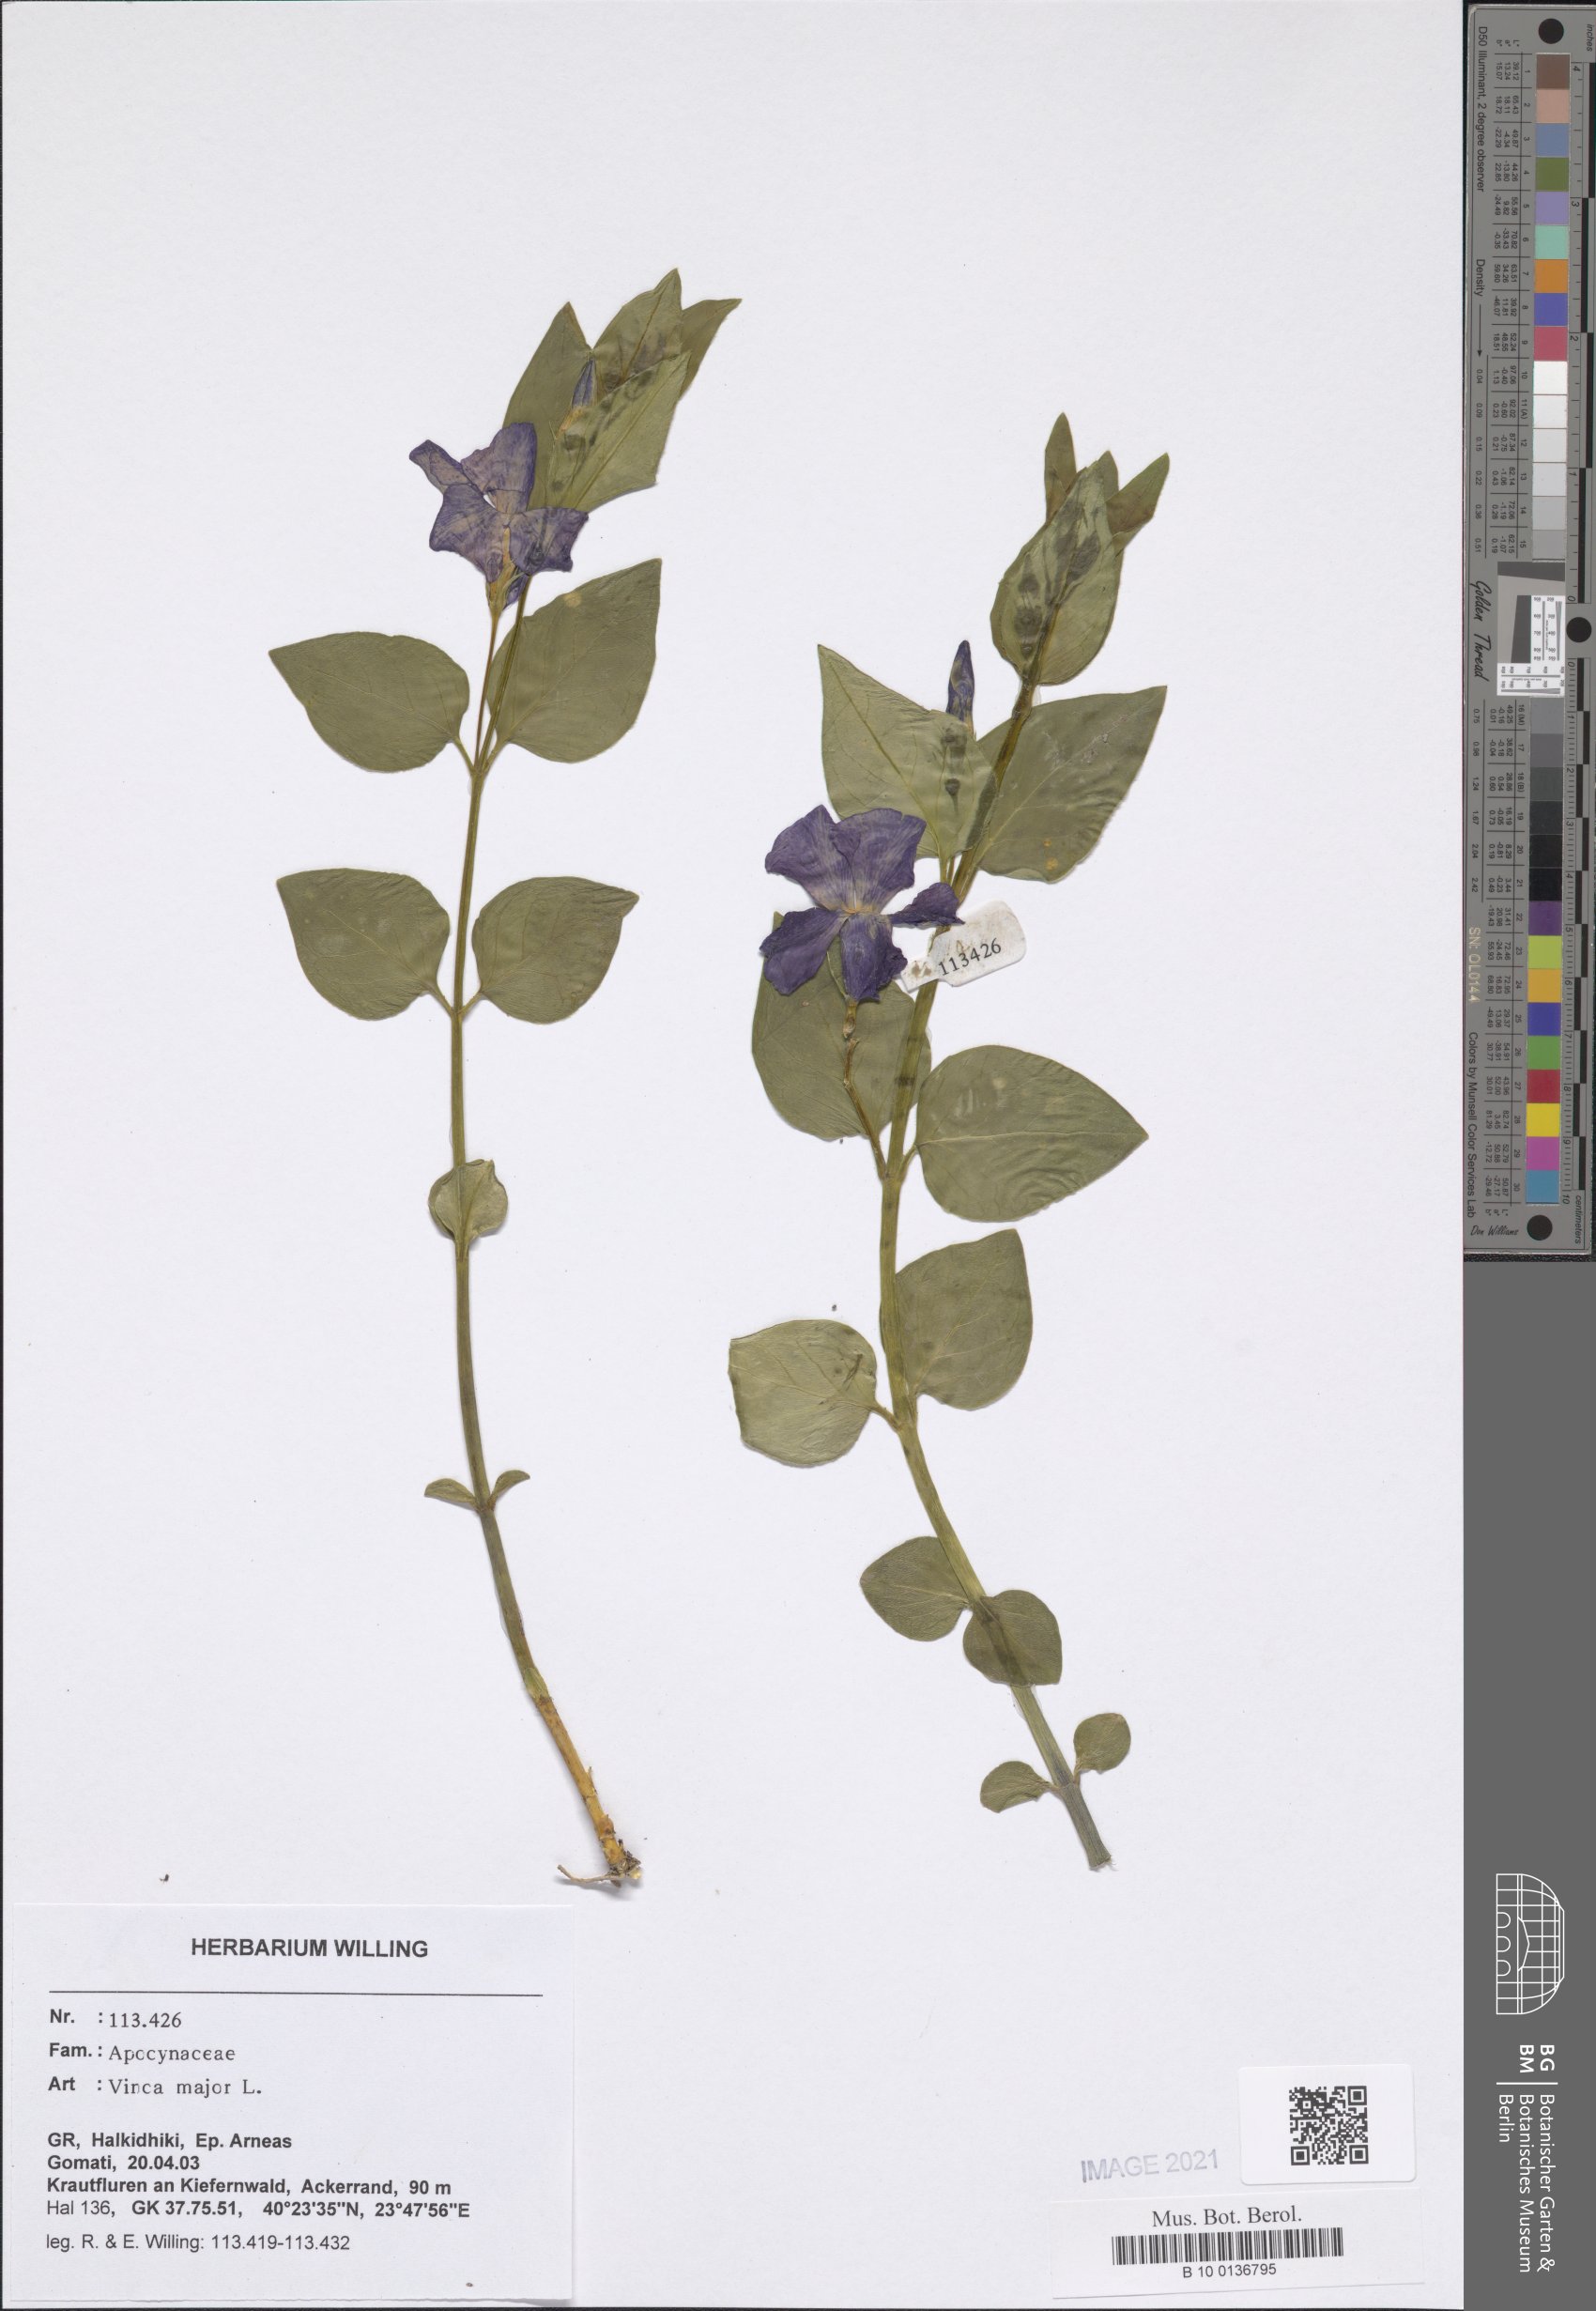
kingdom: Plantae
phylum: Tracheophyta
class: Magnoliopsida
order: Gentianales
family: Apocynaceae
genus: Vinca
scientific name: Vinca major
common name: Greater periwinkle
